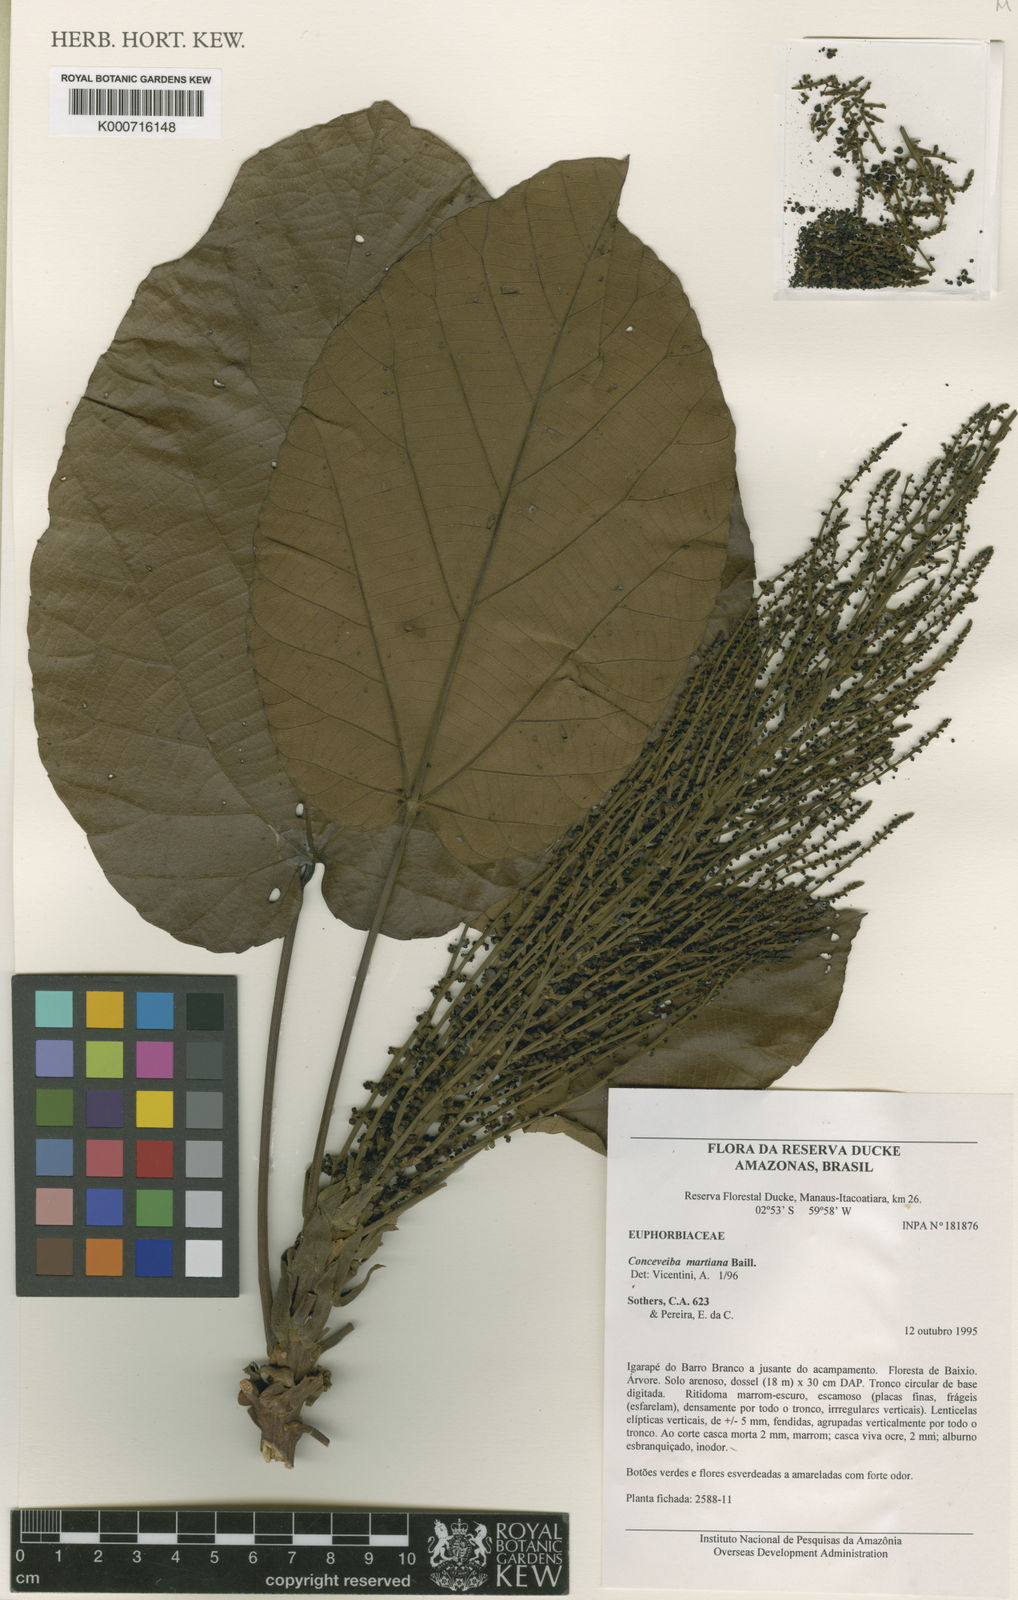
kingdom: Plantae
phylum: Tracheophyta
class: Magnoliopsida
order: Malpighiales
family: Euphorbiaceae
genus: Conceveiba
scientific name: Conceveiba martiana
